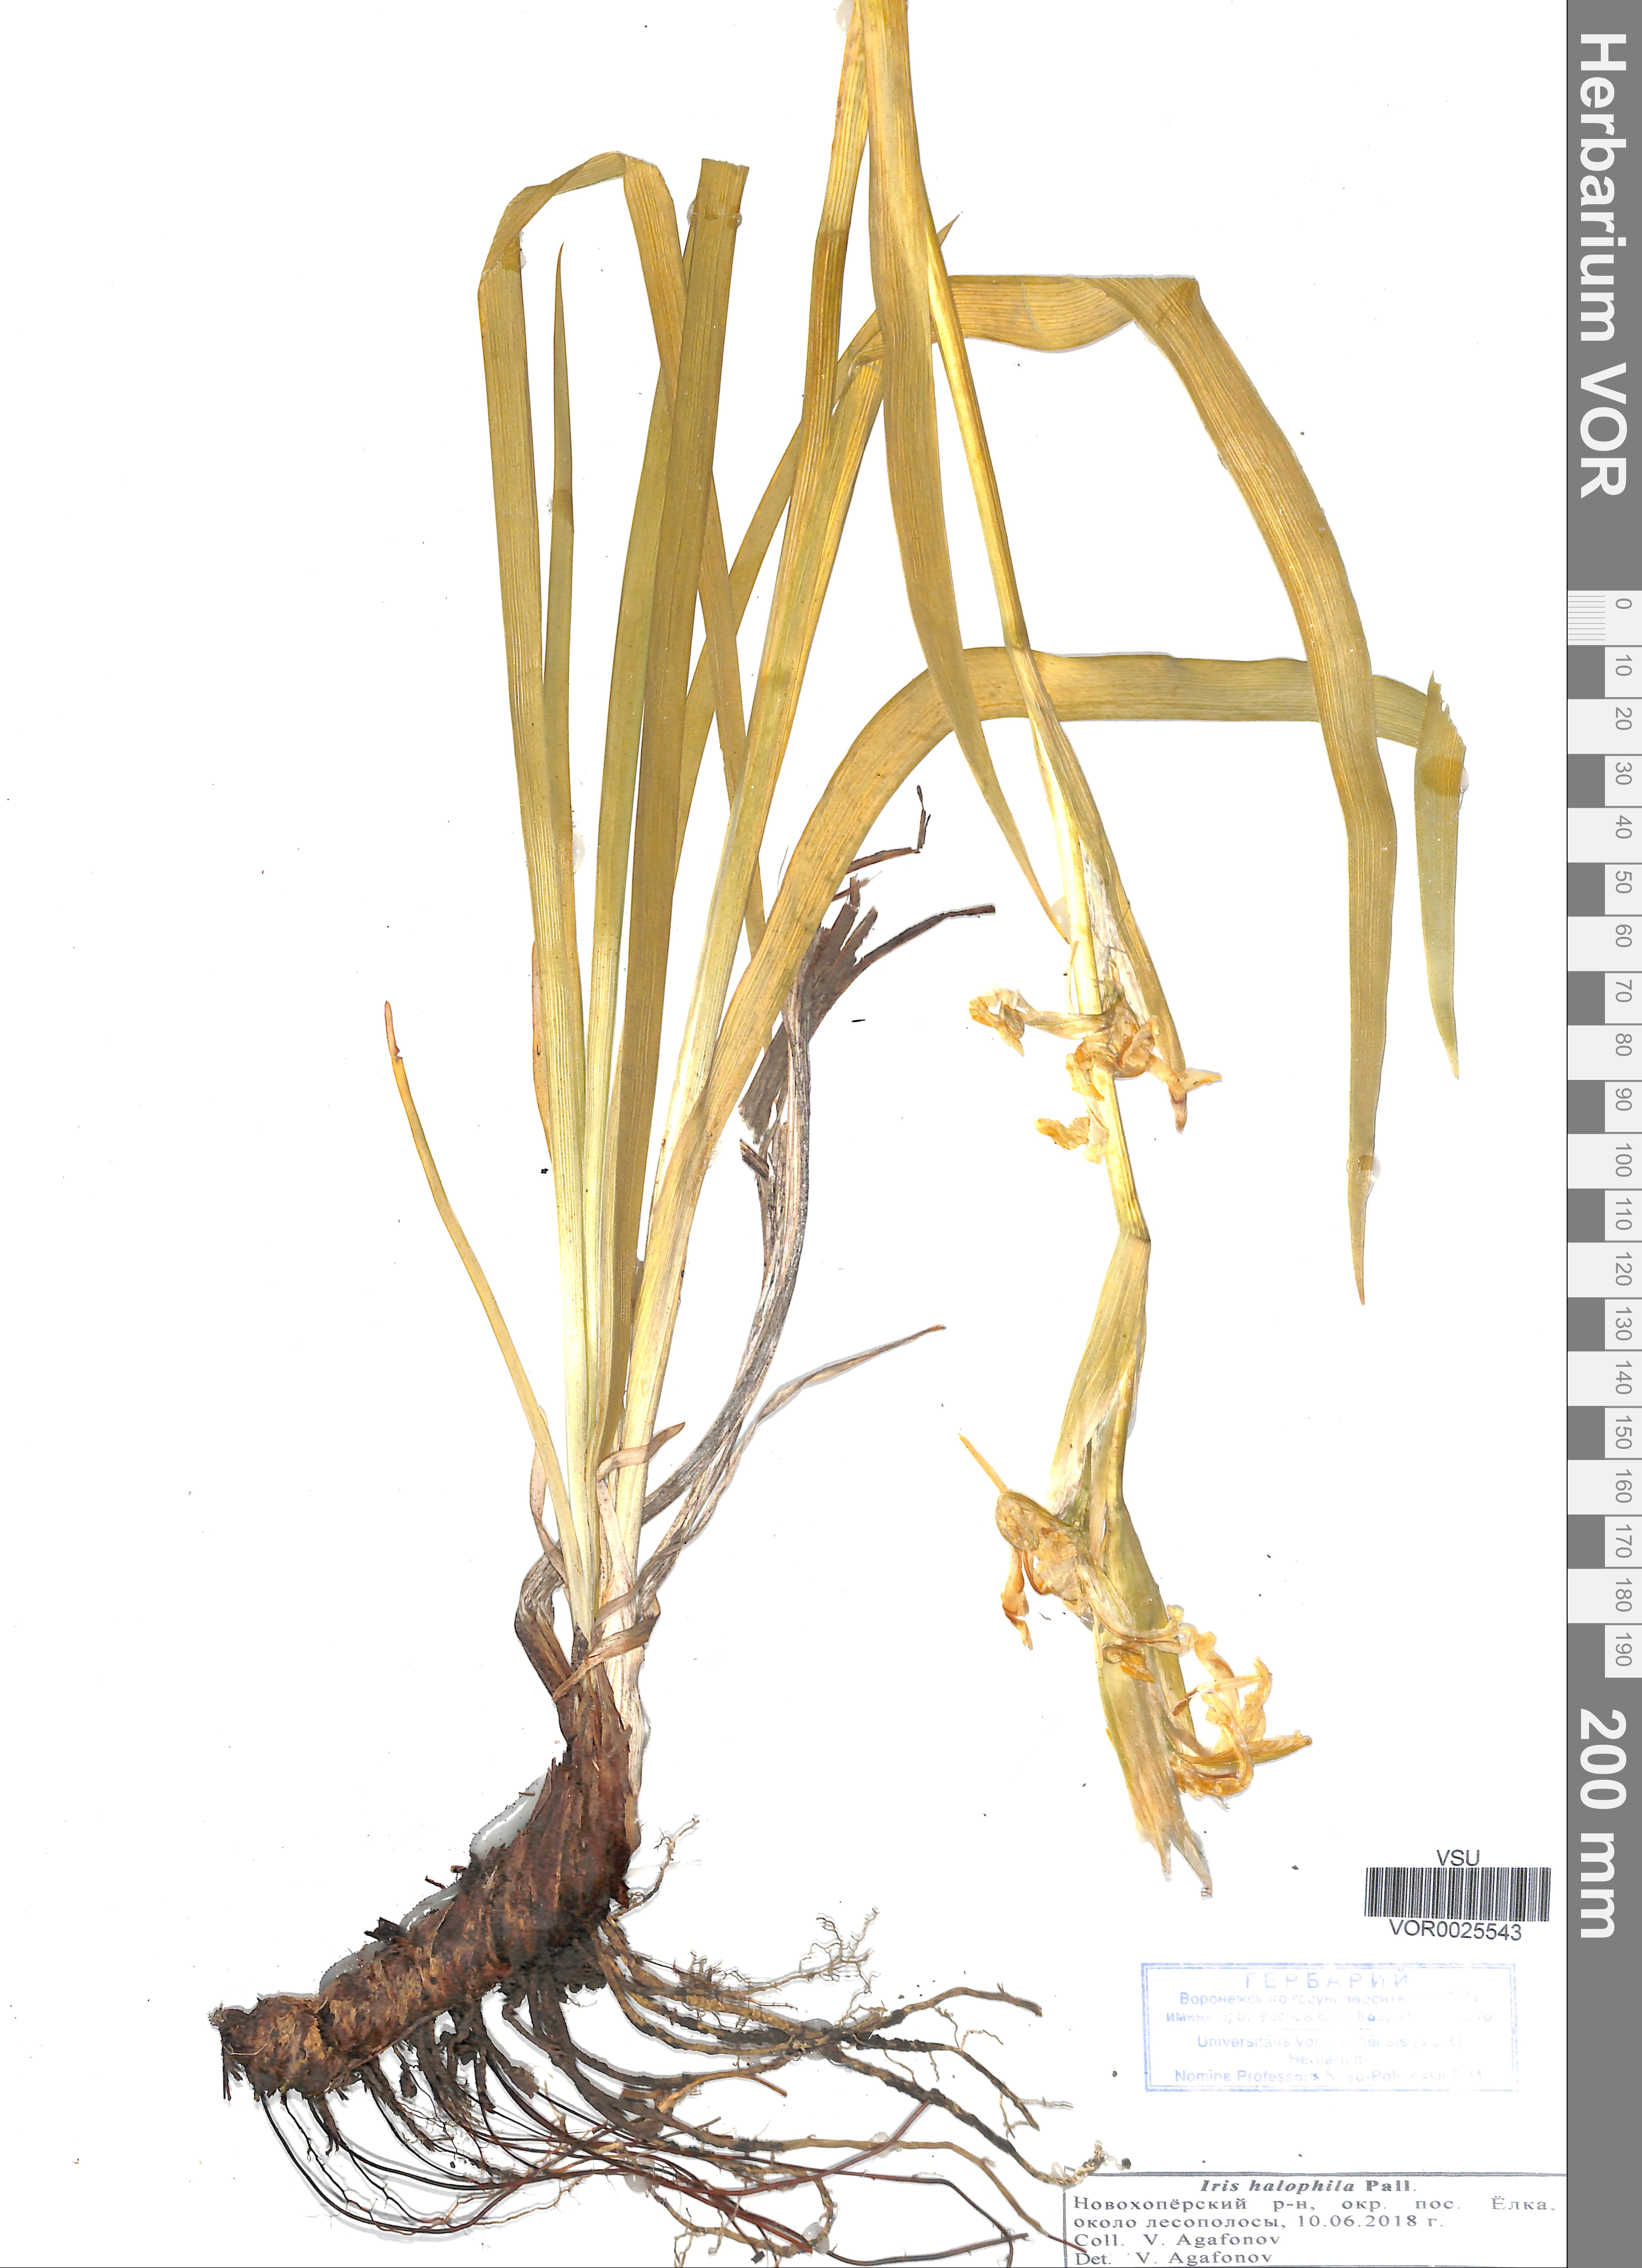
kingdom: Plantae
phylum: Tracheophyta
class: Liliopsida
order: Asparagales
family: Iridaceae
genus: Iris
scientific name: Iris halophila
